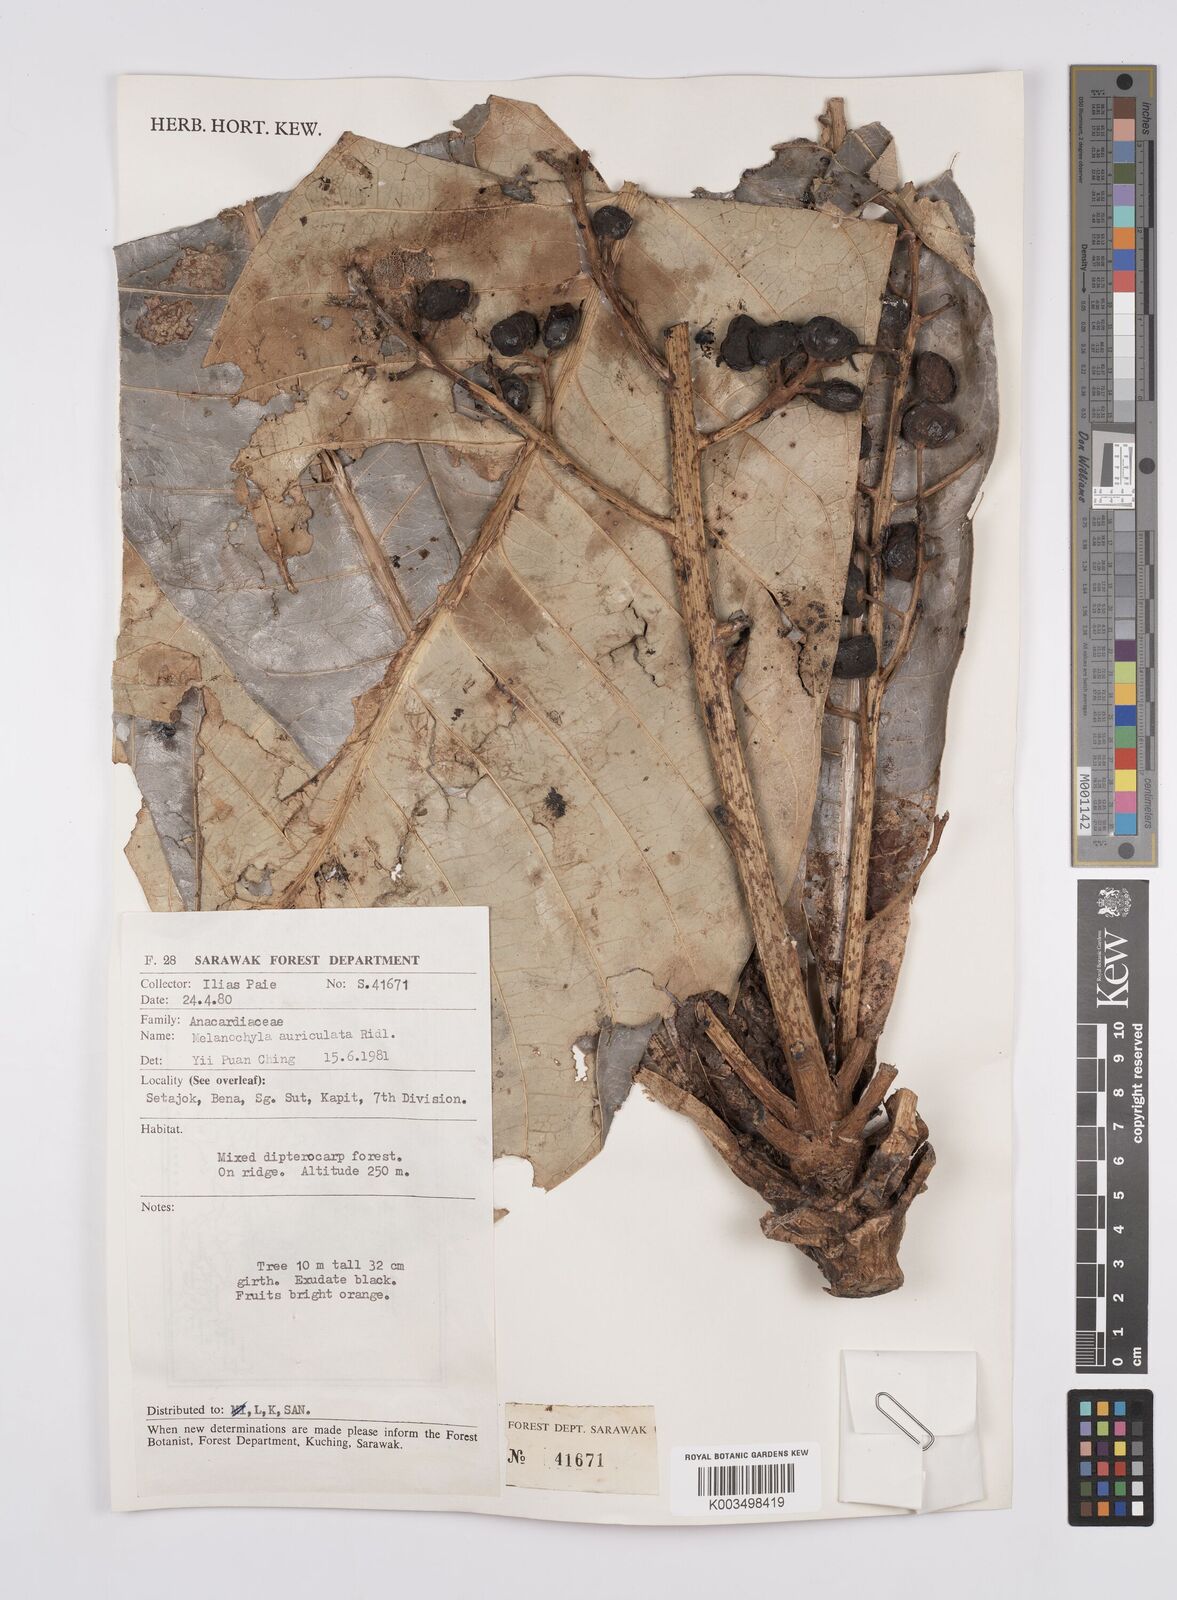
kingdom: Plantae
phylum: Tracheophyta
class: Magnoliopsida
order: Sapindales
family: Anacardiaceae
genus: Melanochyla
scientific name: Melanochyla auriculata
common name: Swamp rengas
